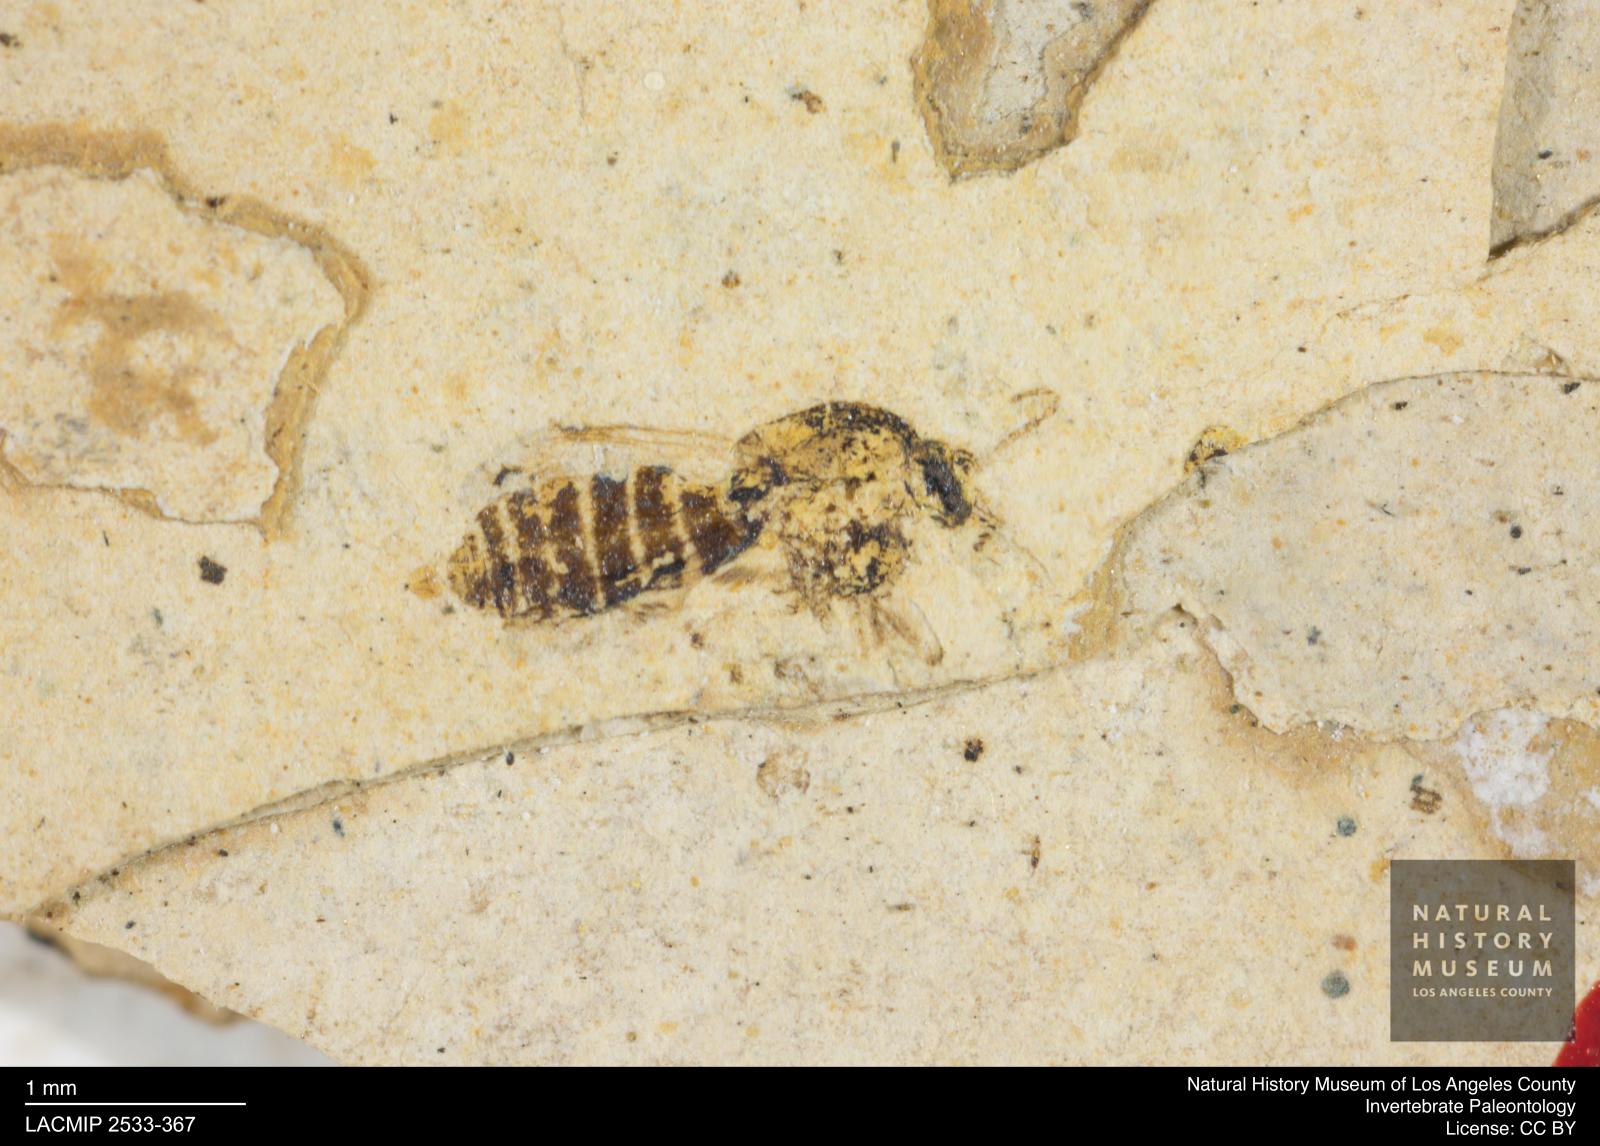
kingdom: Animalia
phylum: Arthropoda
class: Insecta
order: Diptera
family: Ceratopogonidae
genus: Culicoides
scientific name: Culicoides elongatulus
